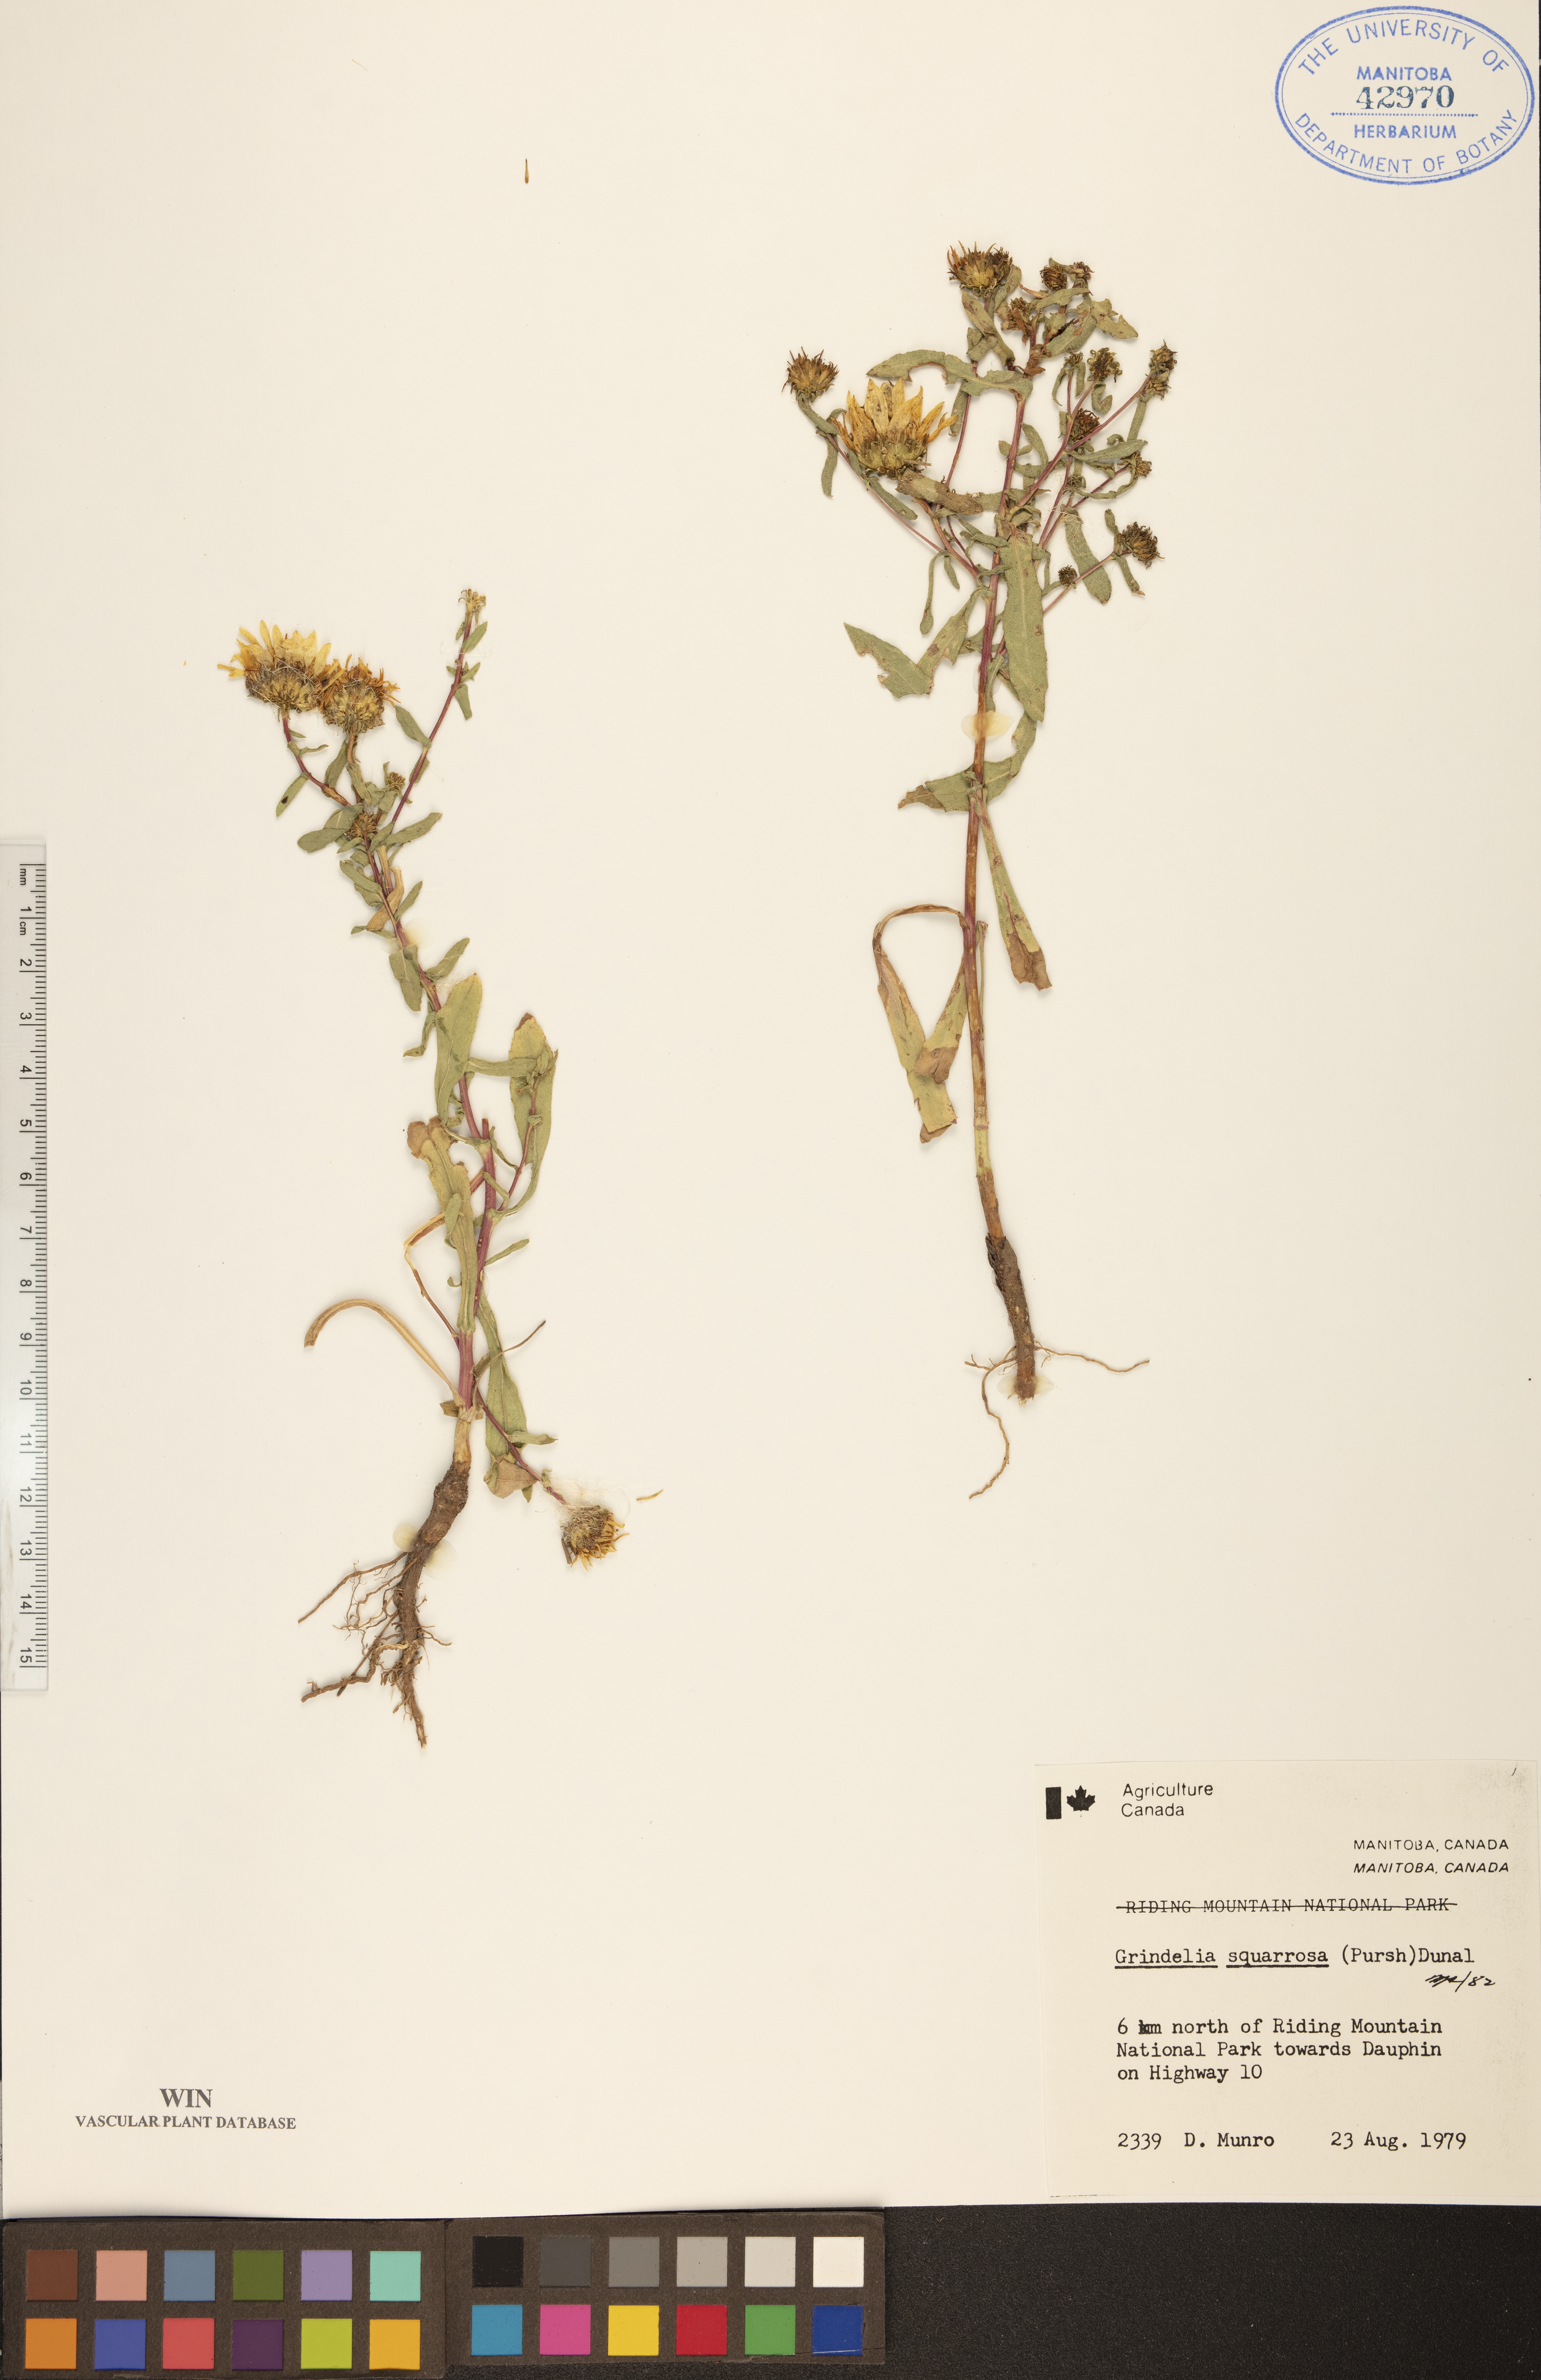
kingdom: Plantae
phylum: Tracheophyta
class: Magnoliopsida
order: Asterales
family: Asteraceae
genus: Grindelia
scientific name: Grindelia squarrosa
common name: Curly-cup gumweed
